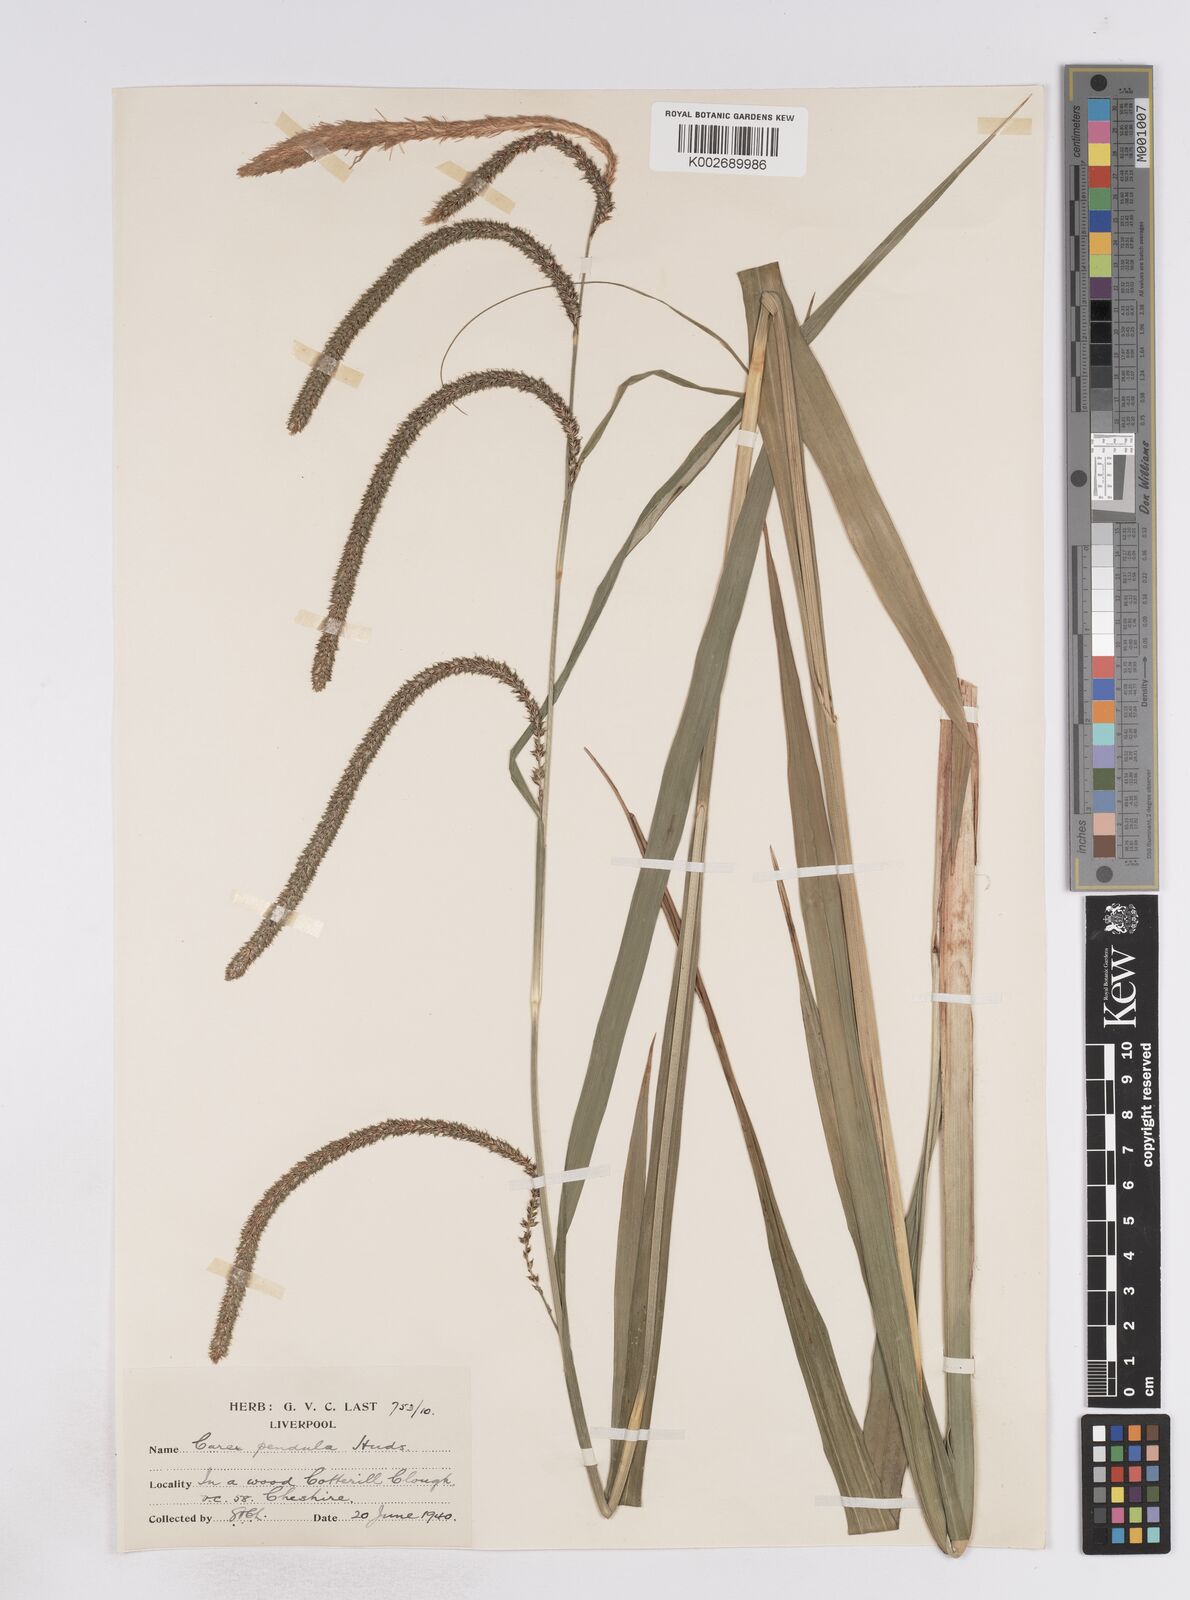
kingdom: Plantae
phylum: Tracheophyta
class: Liliopsida
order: Poales
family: Cyperaceae
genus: Carex
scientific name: Carex pendula
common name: Pendulous sedge
